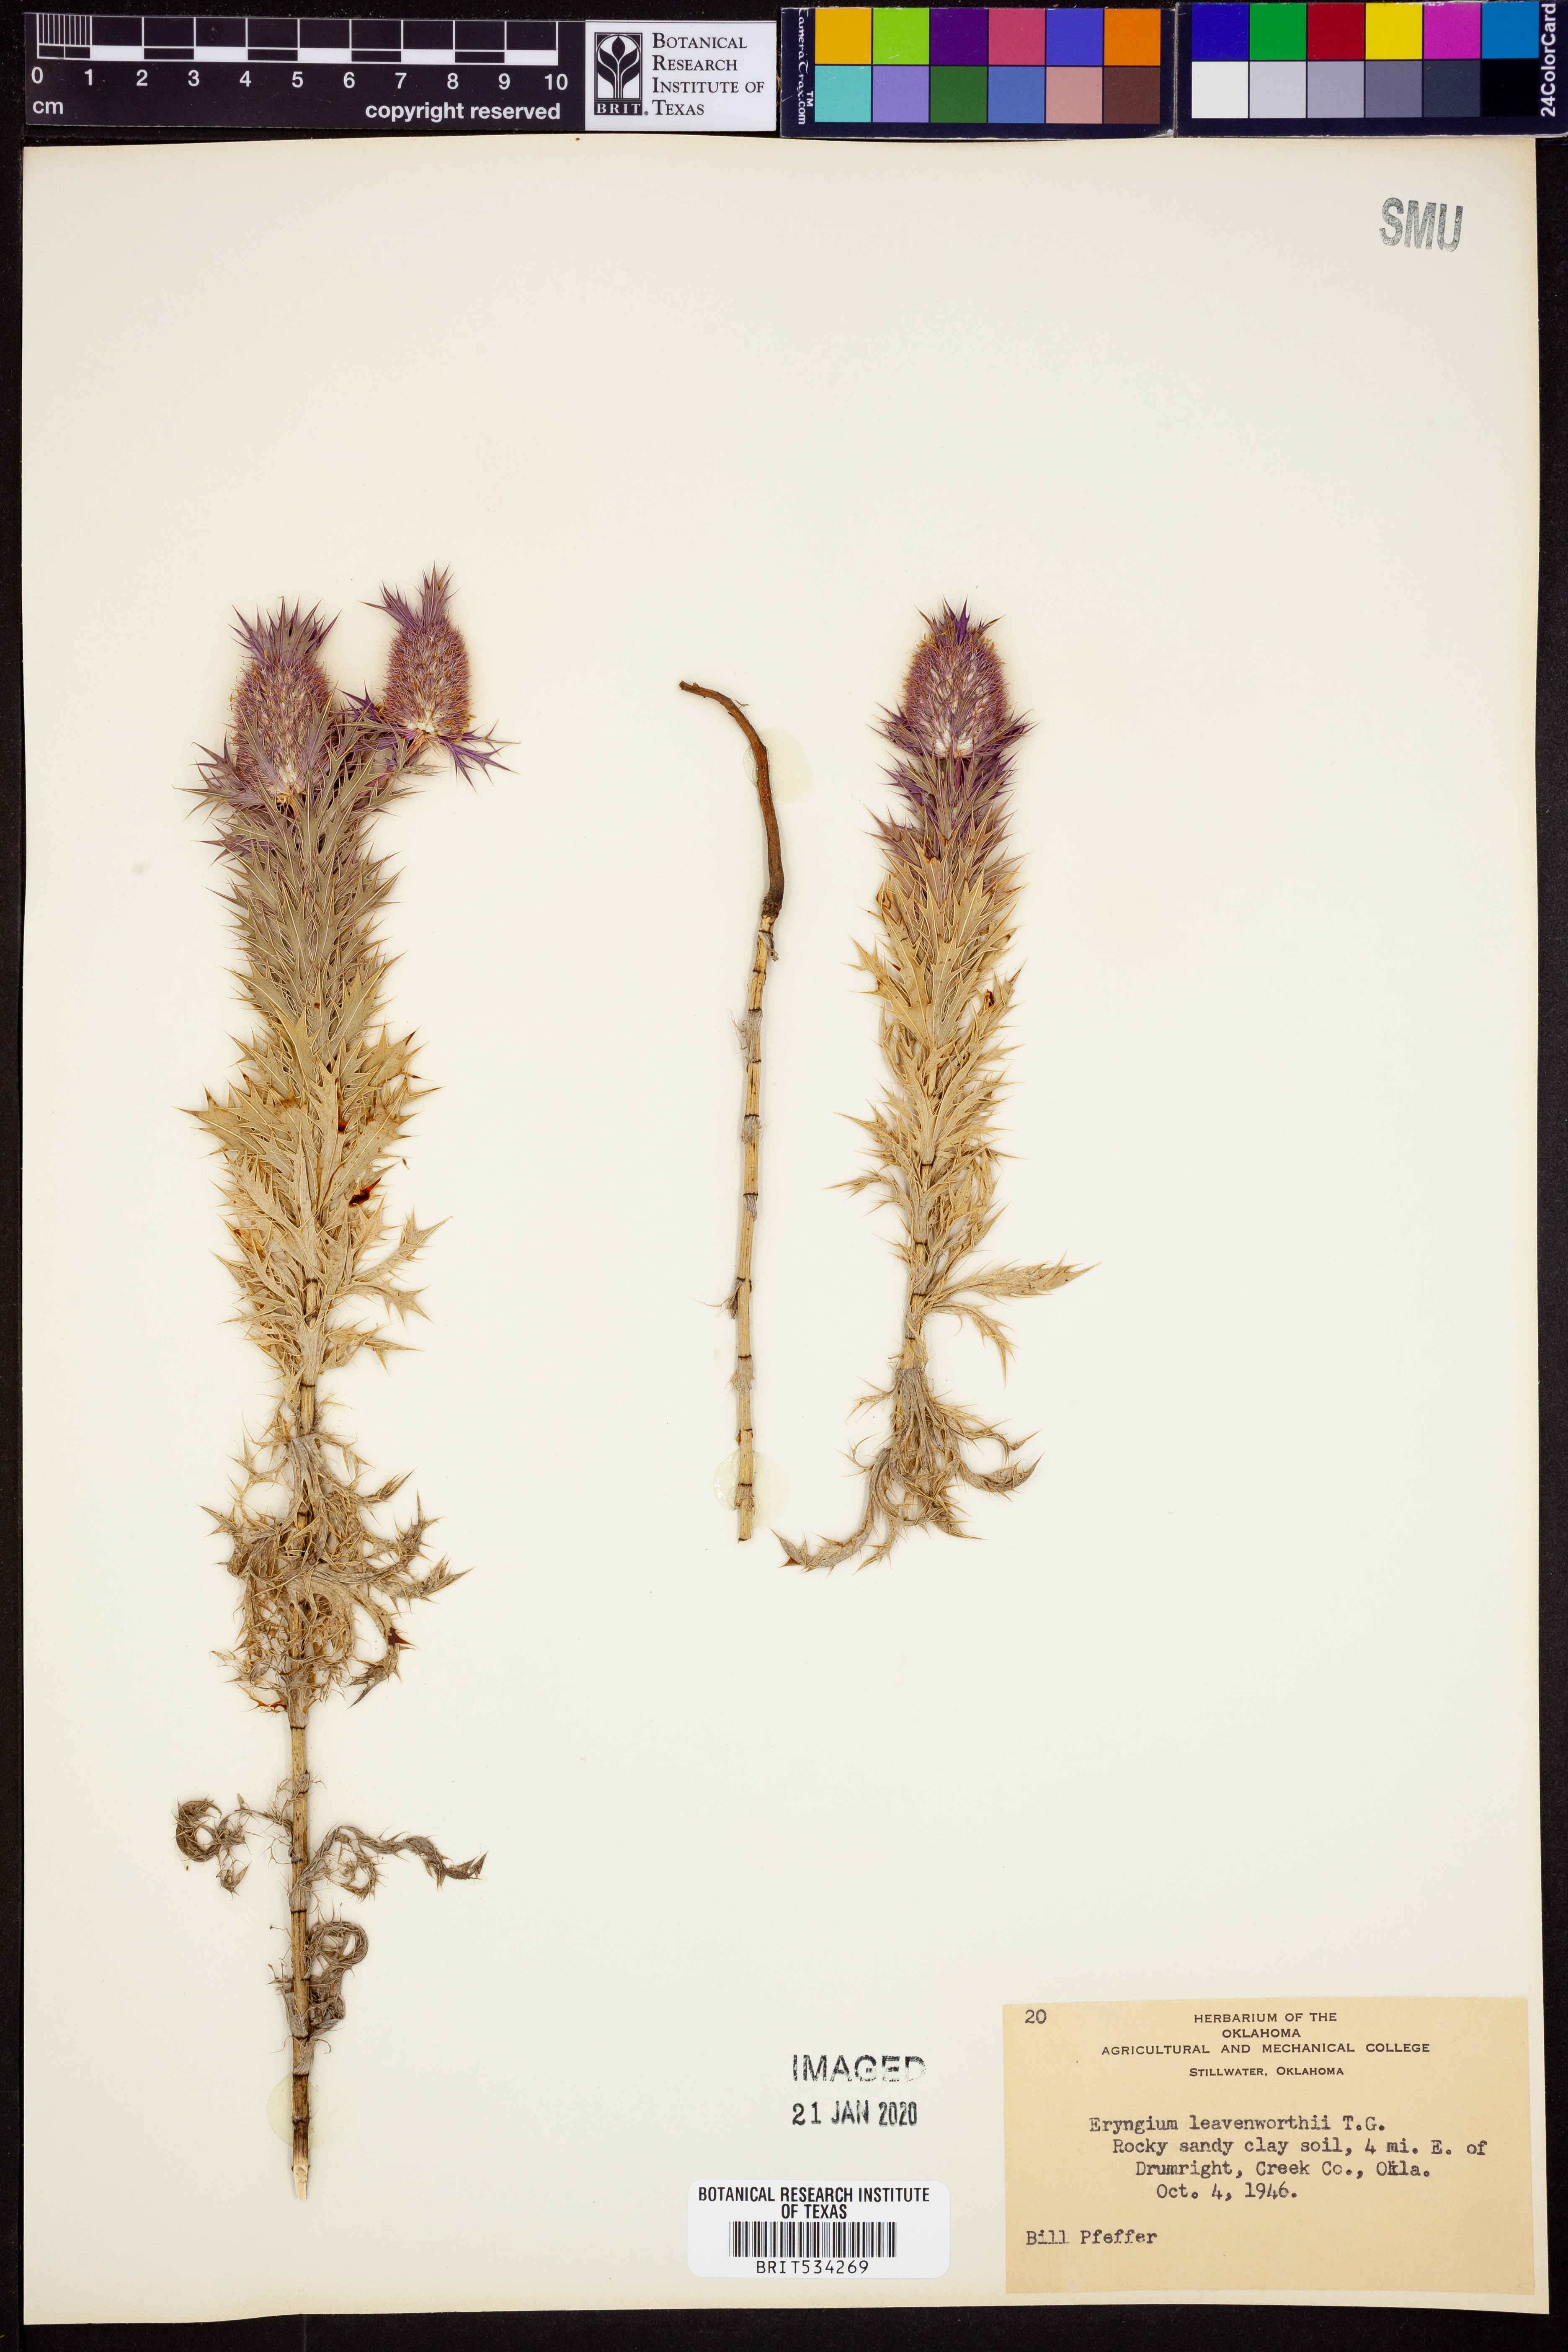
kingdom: Plantae
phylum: Tracheophyta
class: Magnoliopsida
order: Apiales
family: Apiaceae
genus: Eryngium
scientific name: Eryngium leavenworthii
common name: Leavenworth's eryngo
